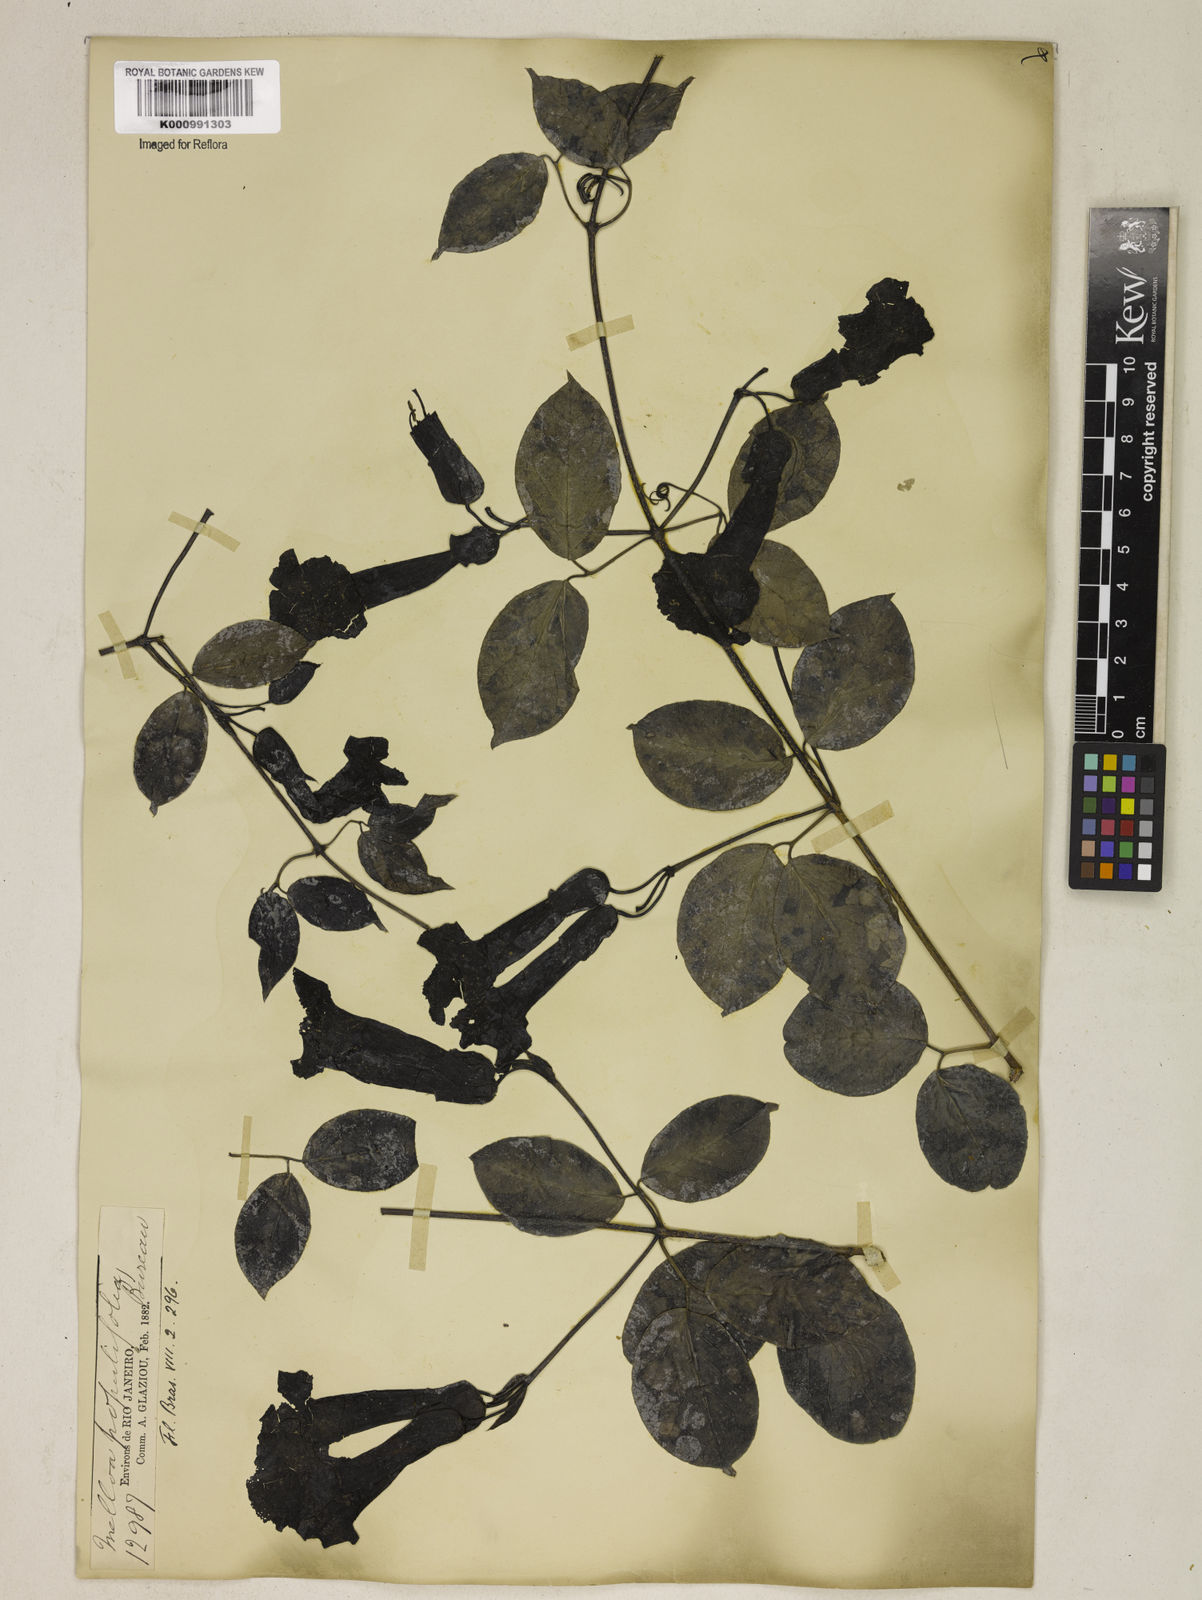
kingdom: Plantae
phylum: Tracheophyta
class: Magnoliopsida
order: Lamiales
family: Bignoniaceae
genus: Dolichandra
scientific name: Dolichandra quadrivalvis
